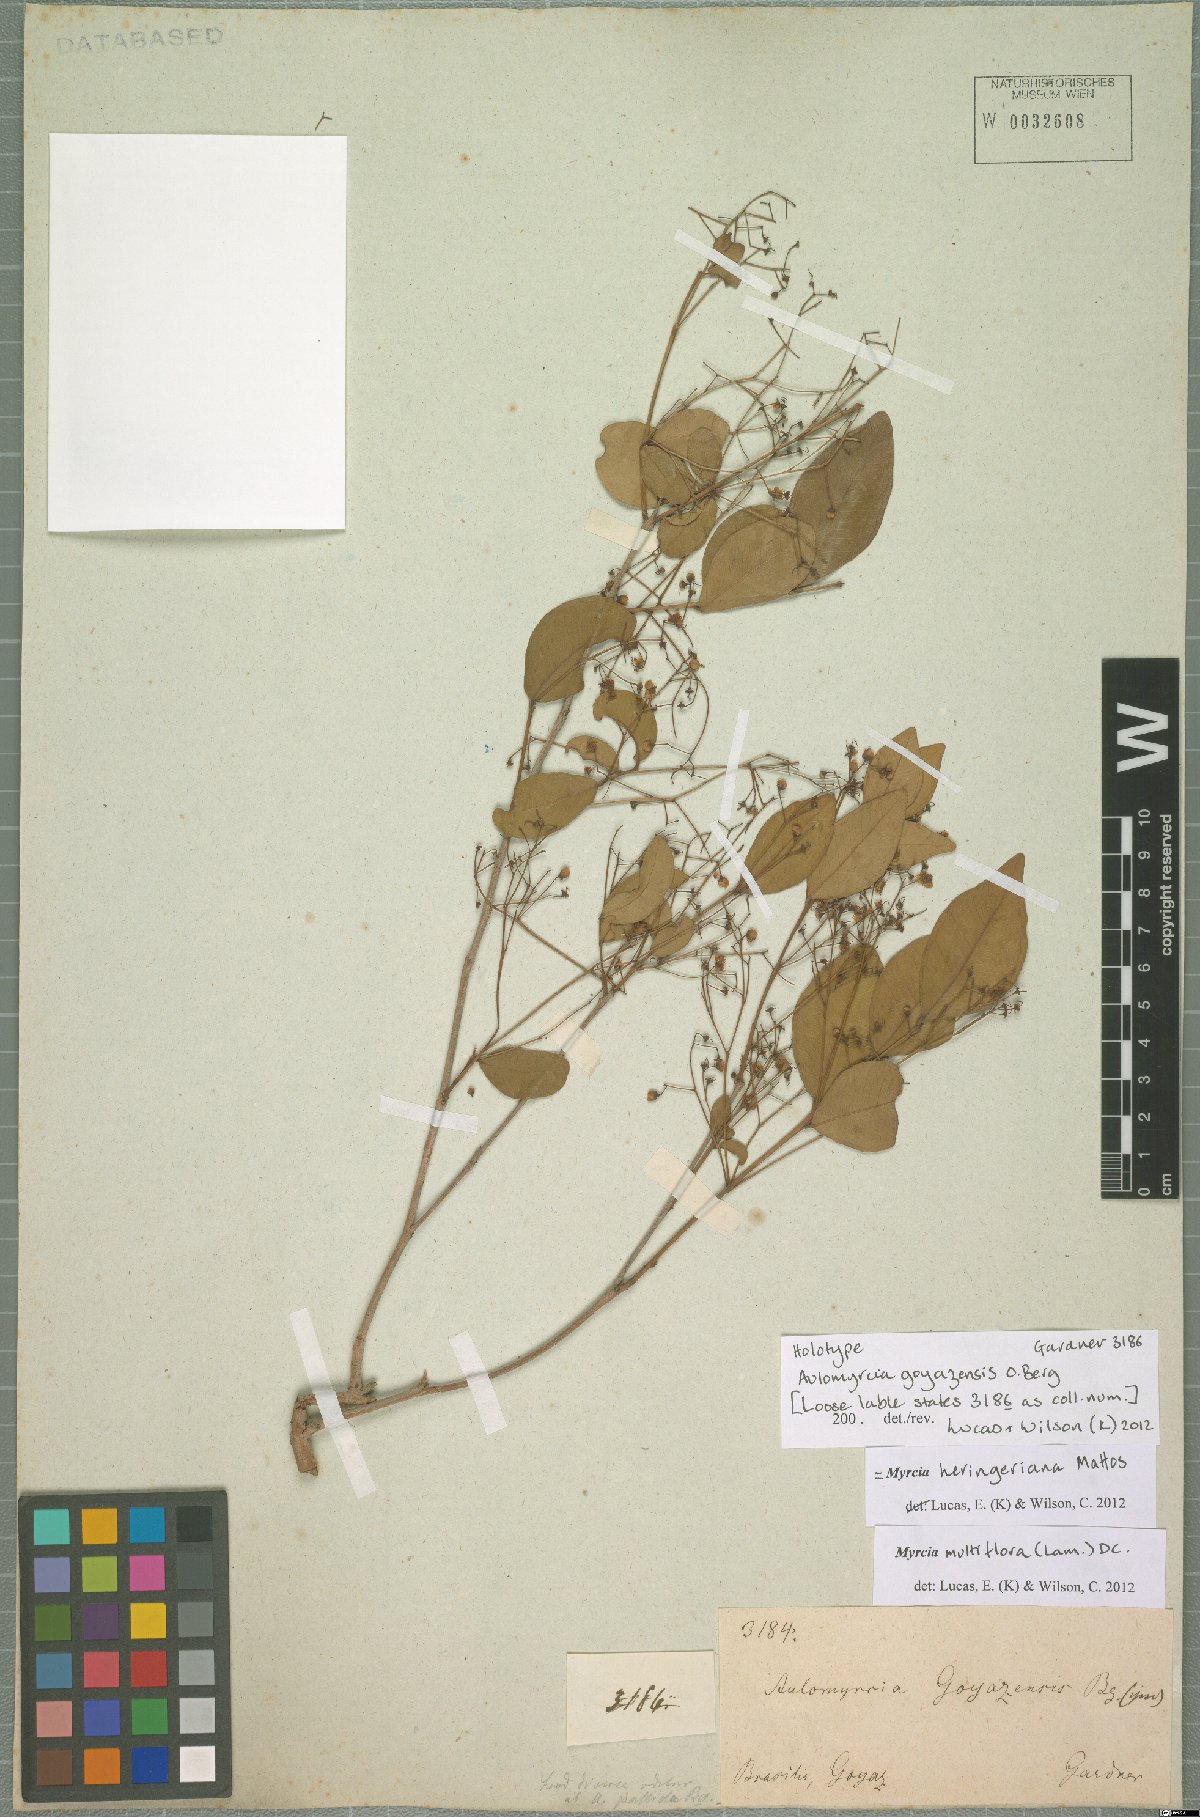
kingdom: Plantae
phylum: Tracheophyta
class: Magnoliopsida
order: Myrtales
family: Myrtaceae
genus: Myrcia
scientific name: Myrcia multiflora
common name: Pedra hume
